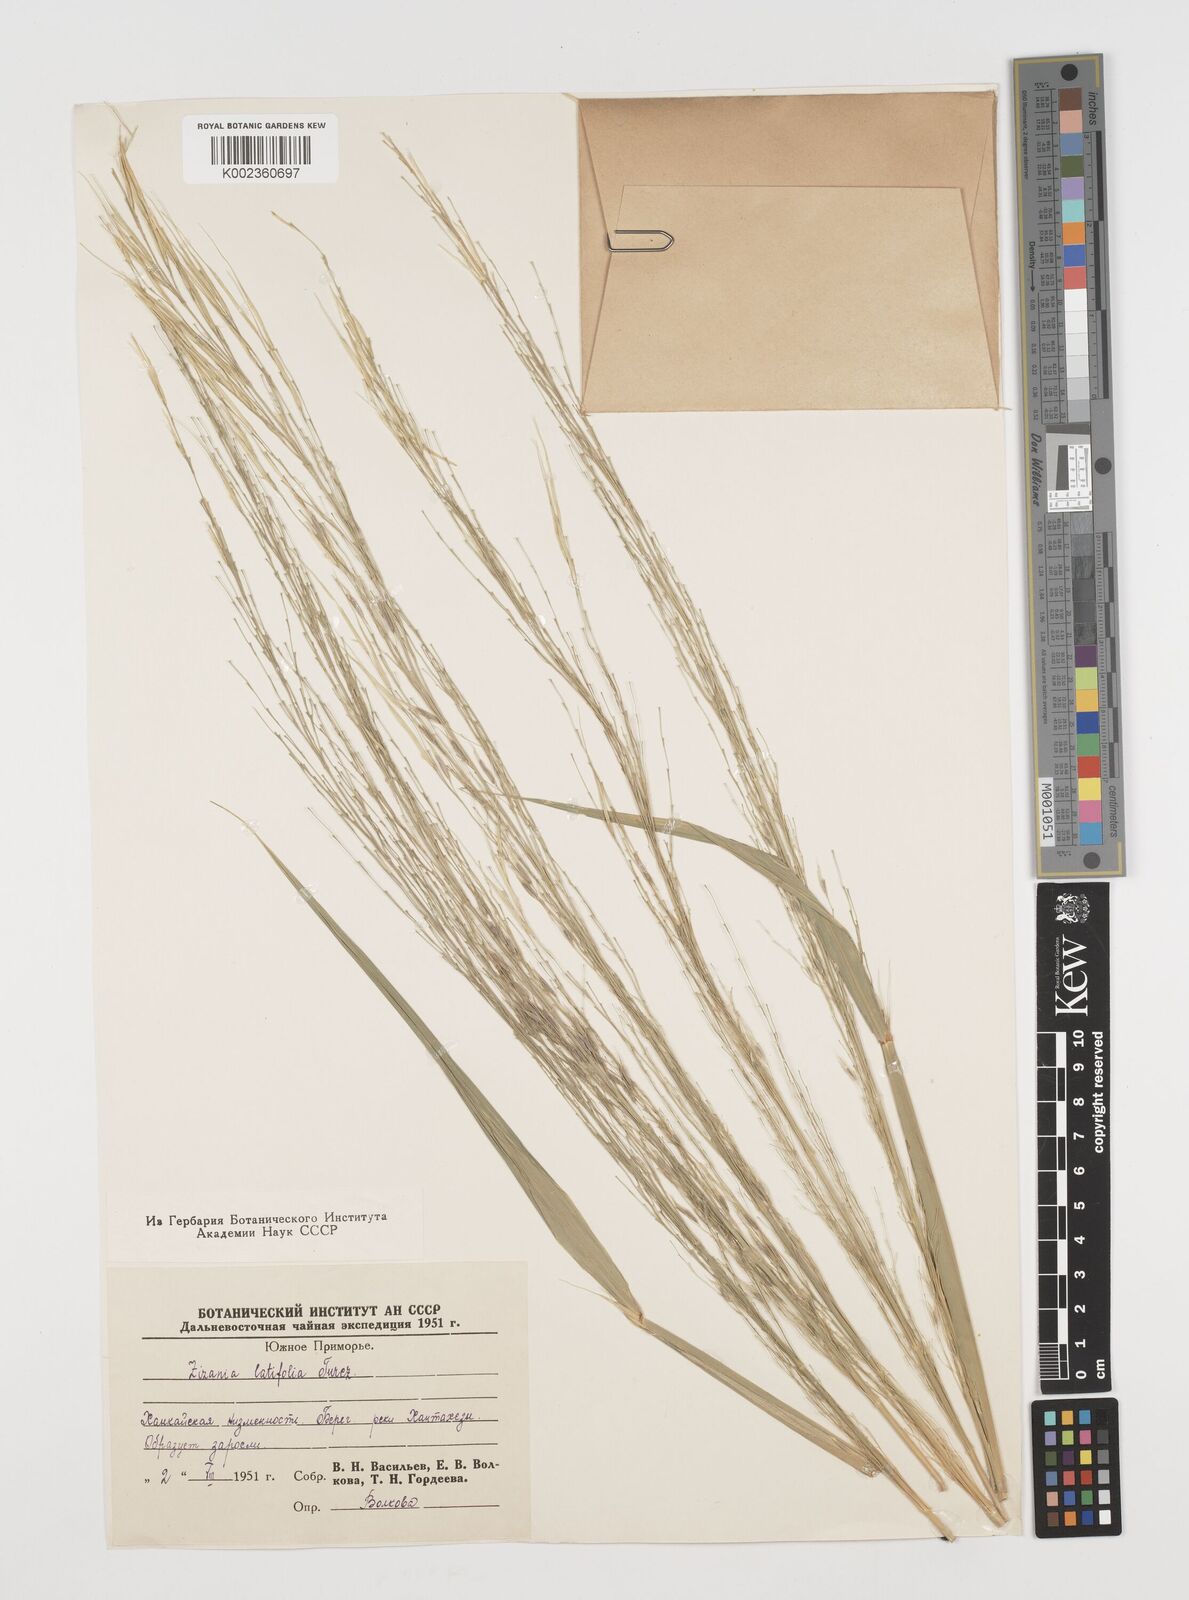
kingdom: Plantae
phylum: Tracheophyta
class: Liliopsida
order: Poales
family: Poaceae
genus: Zizania
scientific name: Zizania latifolia
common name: Manchurian wildrice
